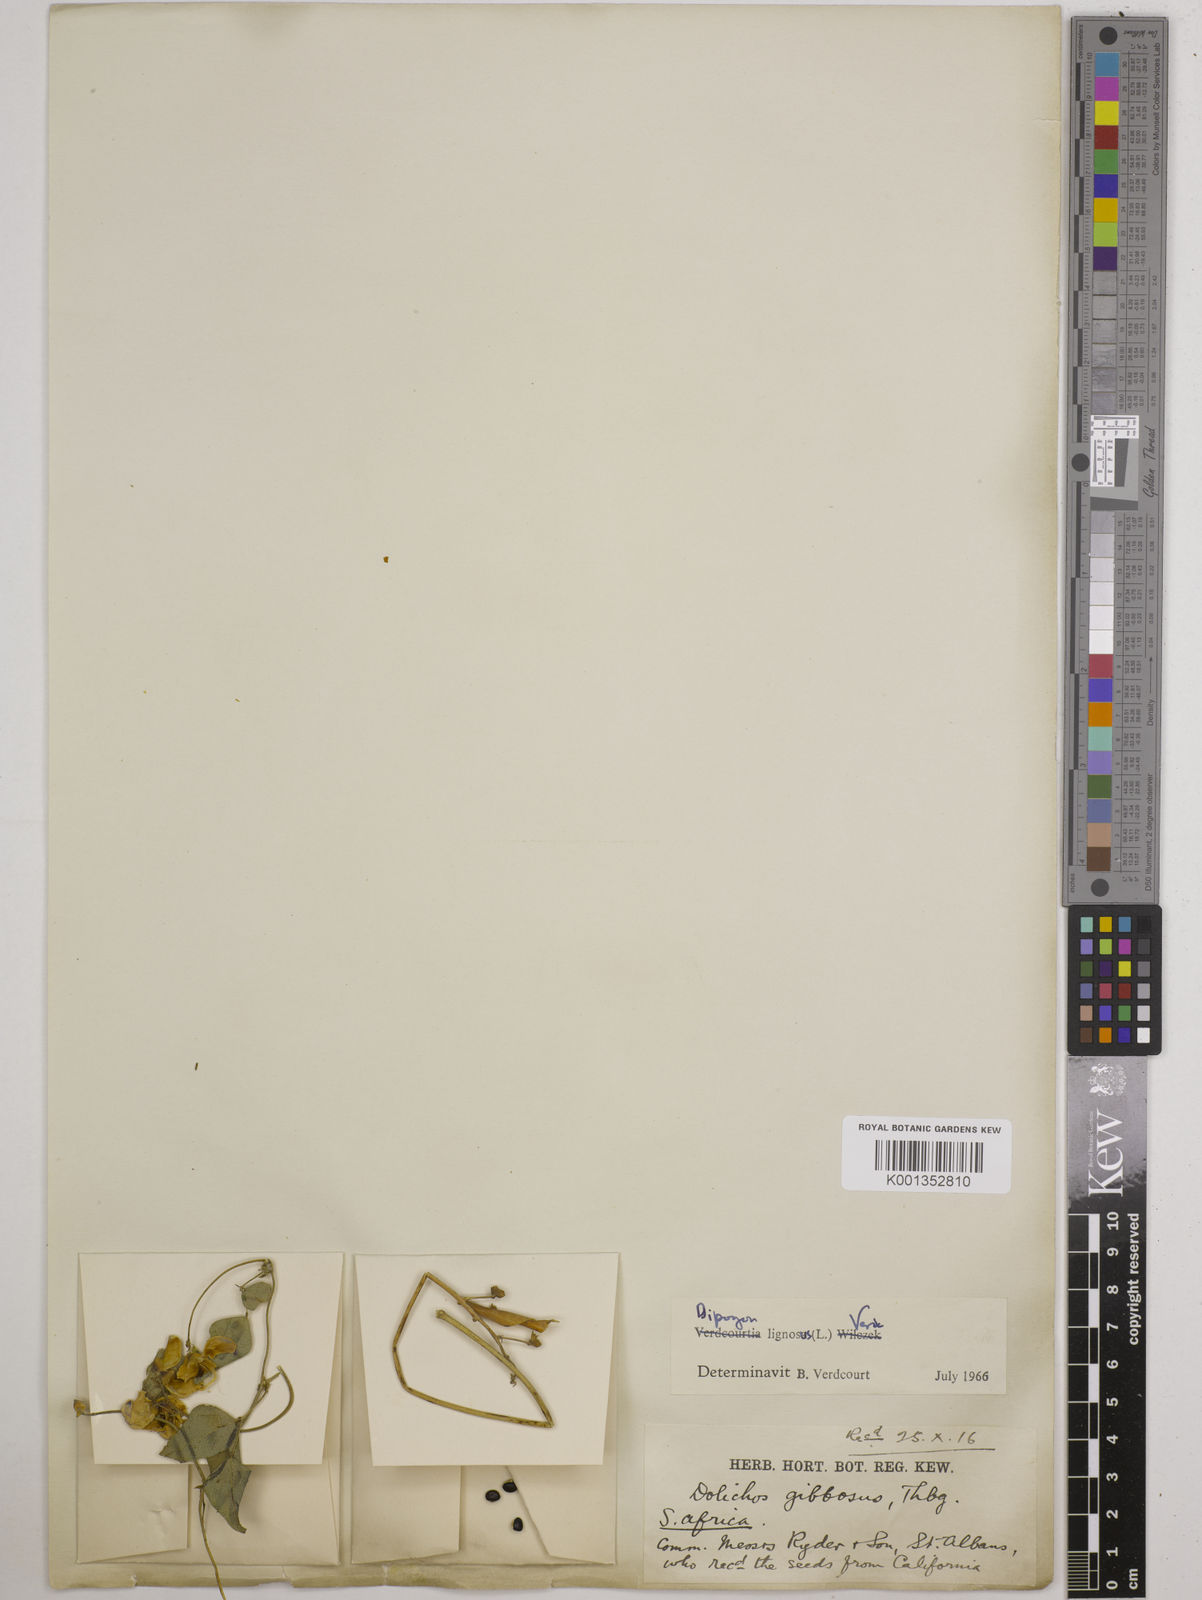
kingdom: Plantae
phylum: Tracheophyta
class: Magnoliopsida
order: Fabales
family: Fabaceae
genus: Dipogon
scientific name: Dipogon lignosus
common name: Okie bean
